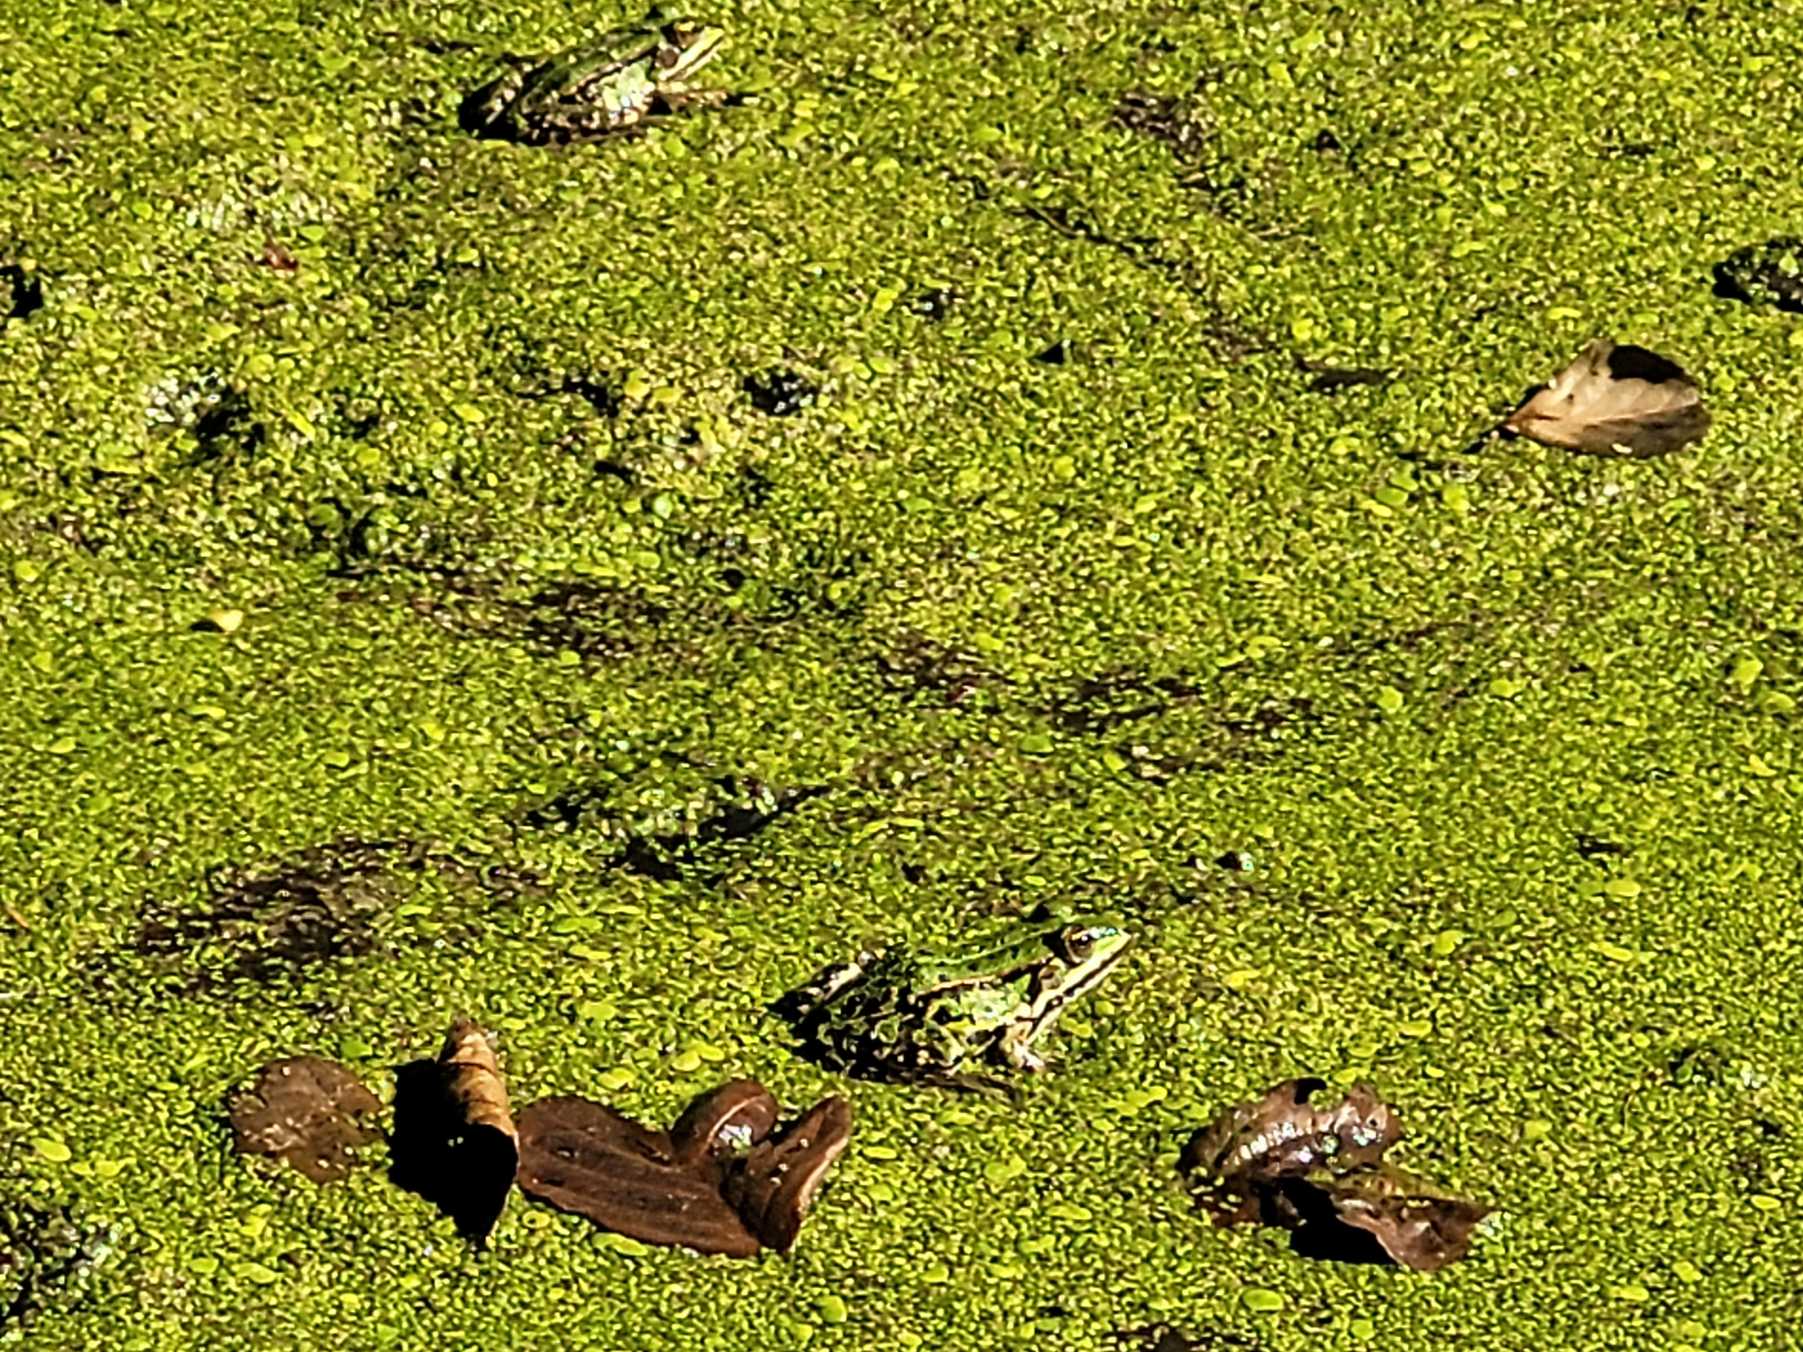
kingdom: Animalia
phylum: Chordata
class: Amphibia
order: Anura
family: Ranidae
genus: Pelophylax
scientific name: Pelophylax lessonae
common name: Grøn frø
